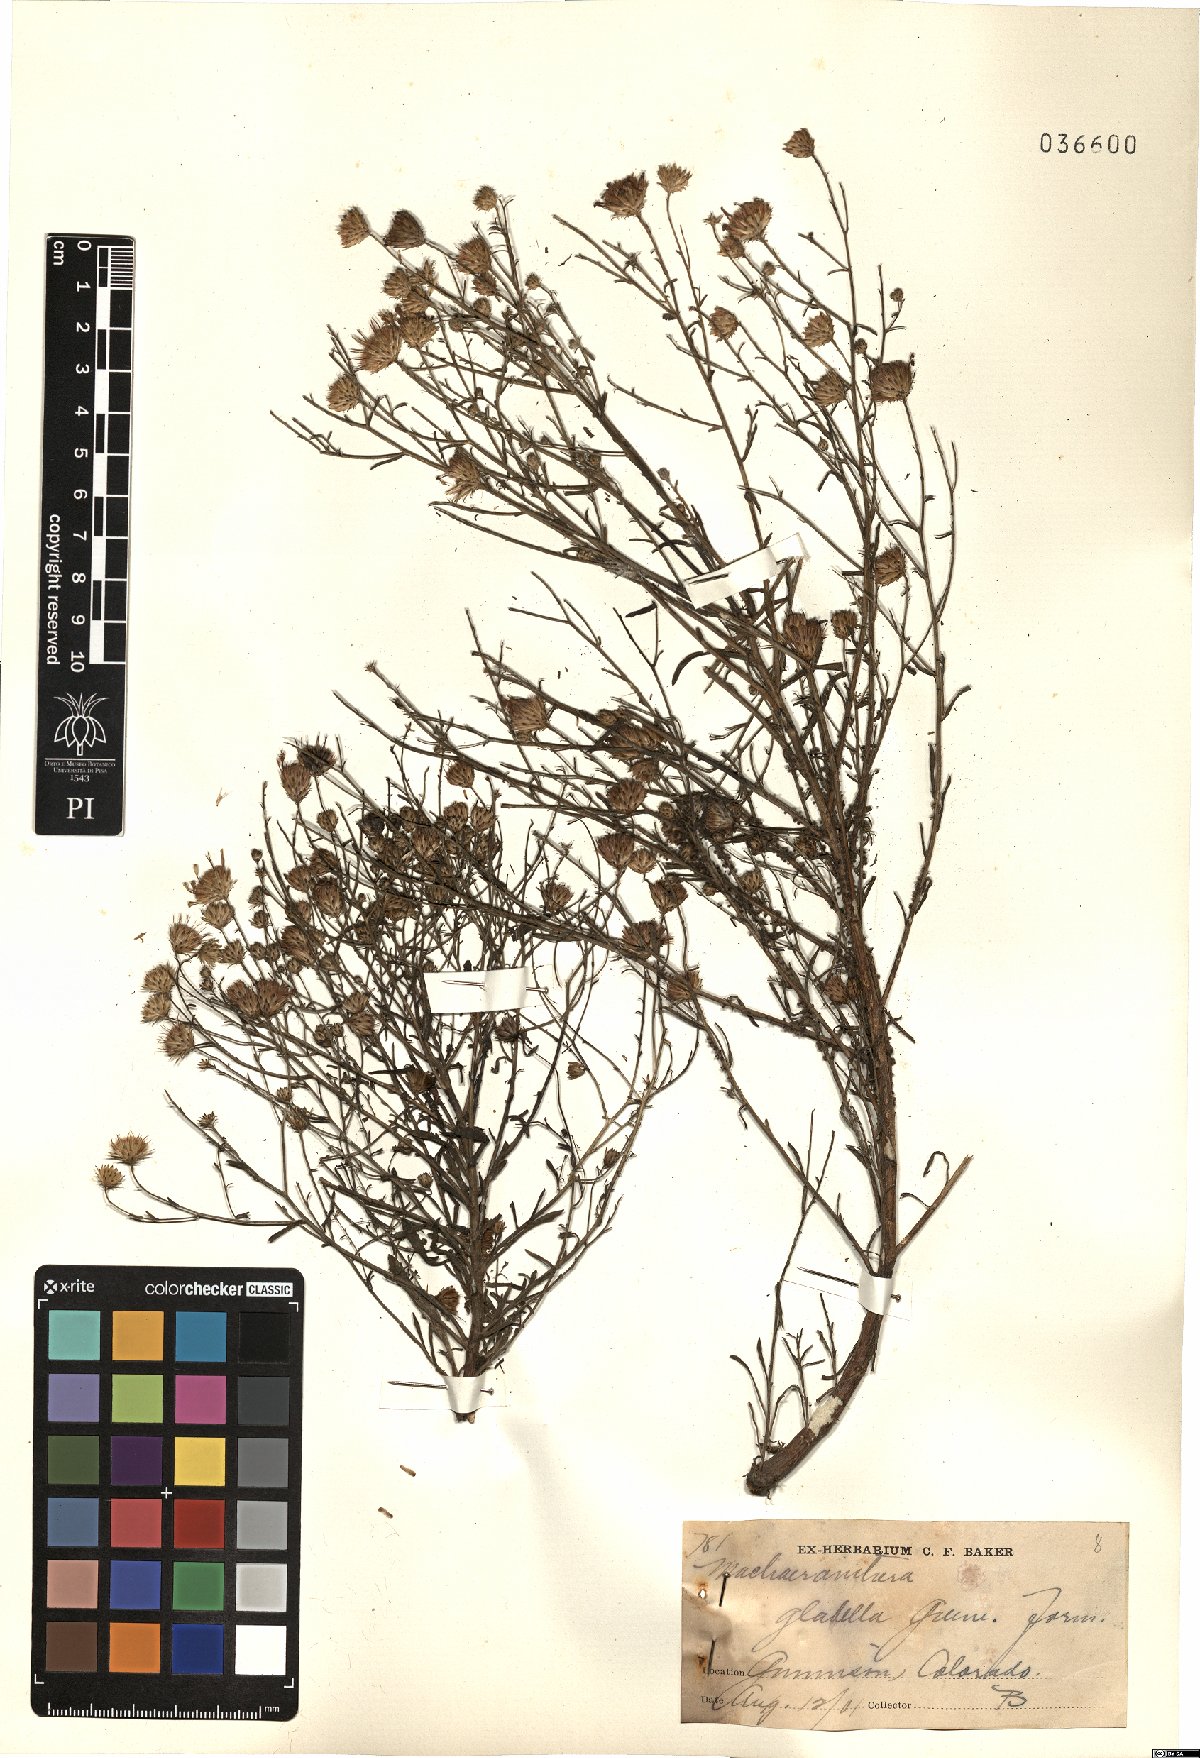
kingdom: Plantae
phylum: Tracheophyta
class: Magnoliopsida
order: Asterales
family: Asteraceae
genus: Dieteria
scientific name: Dieteria canescens
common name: Hoary-aster
